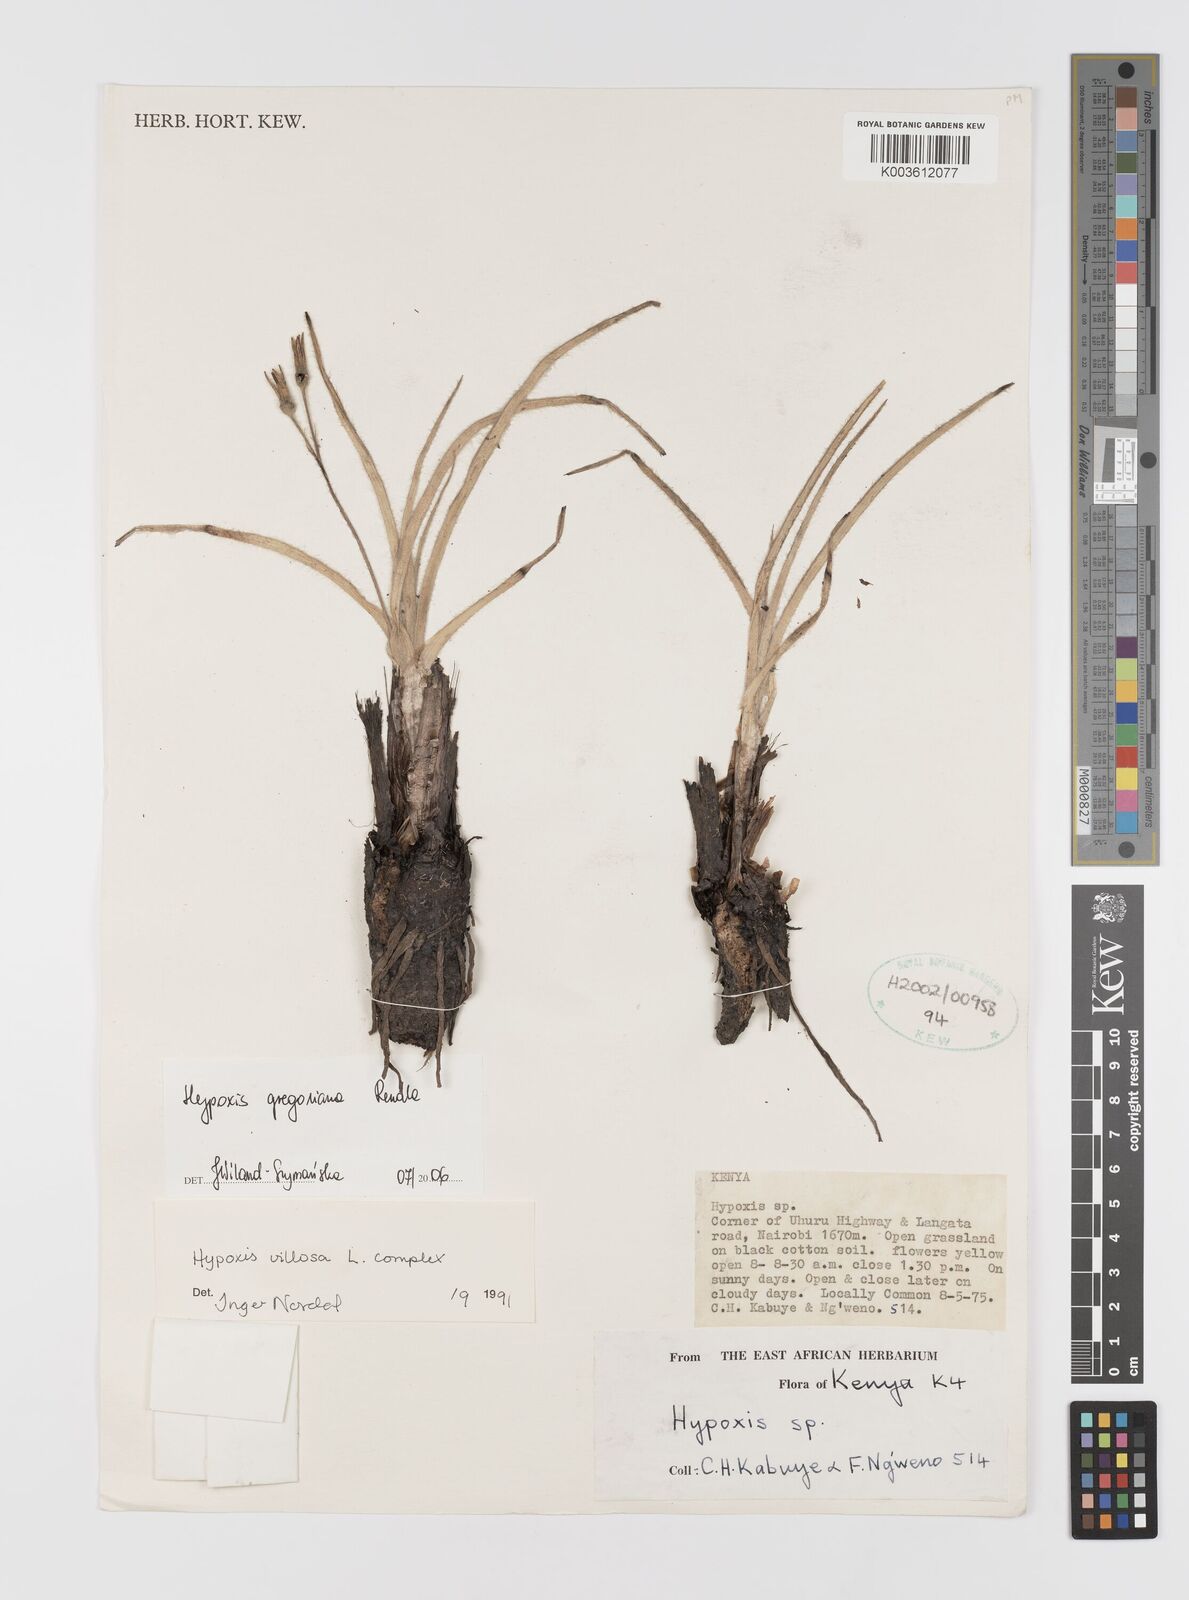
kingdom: Plantae
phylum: Tracheophyta
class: Liliopsida
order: Asparagales
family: Hypoxidaceae
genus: Hypoxis
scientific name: Hypoxis gregoriana
